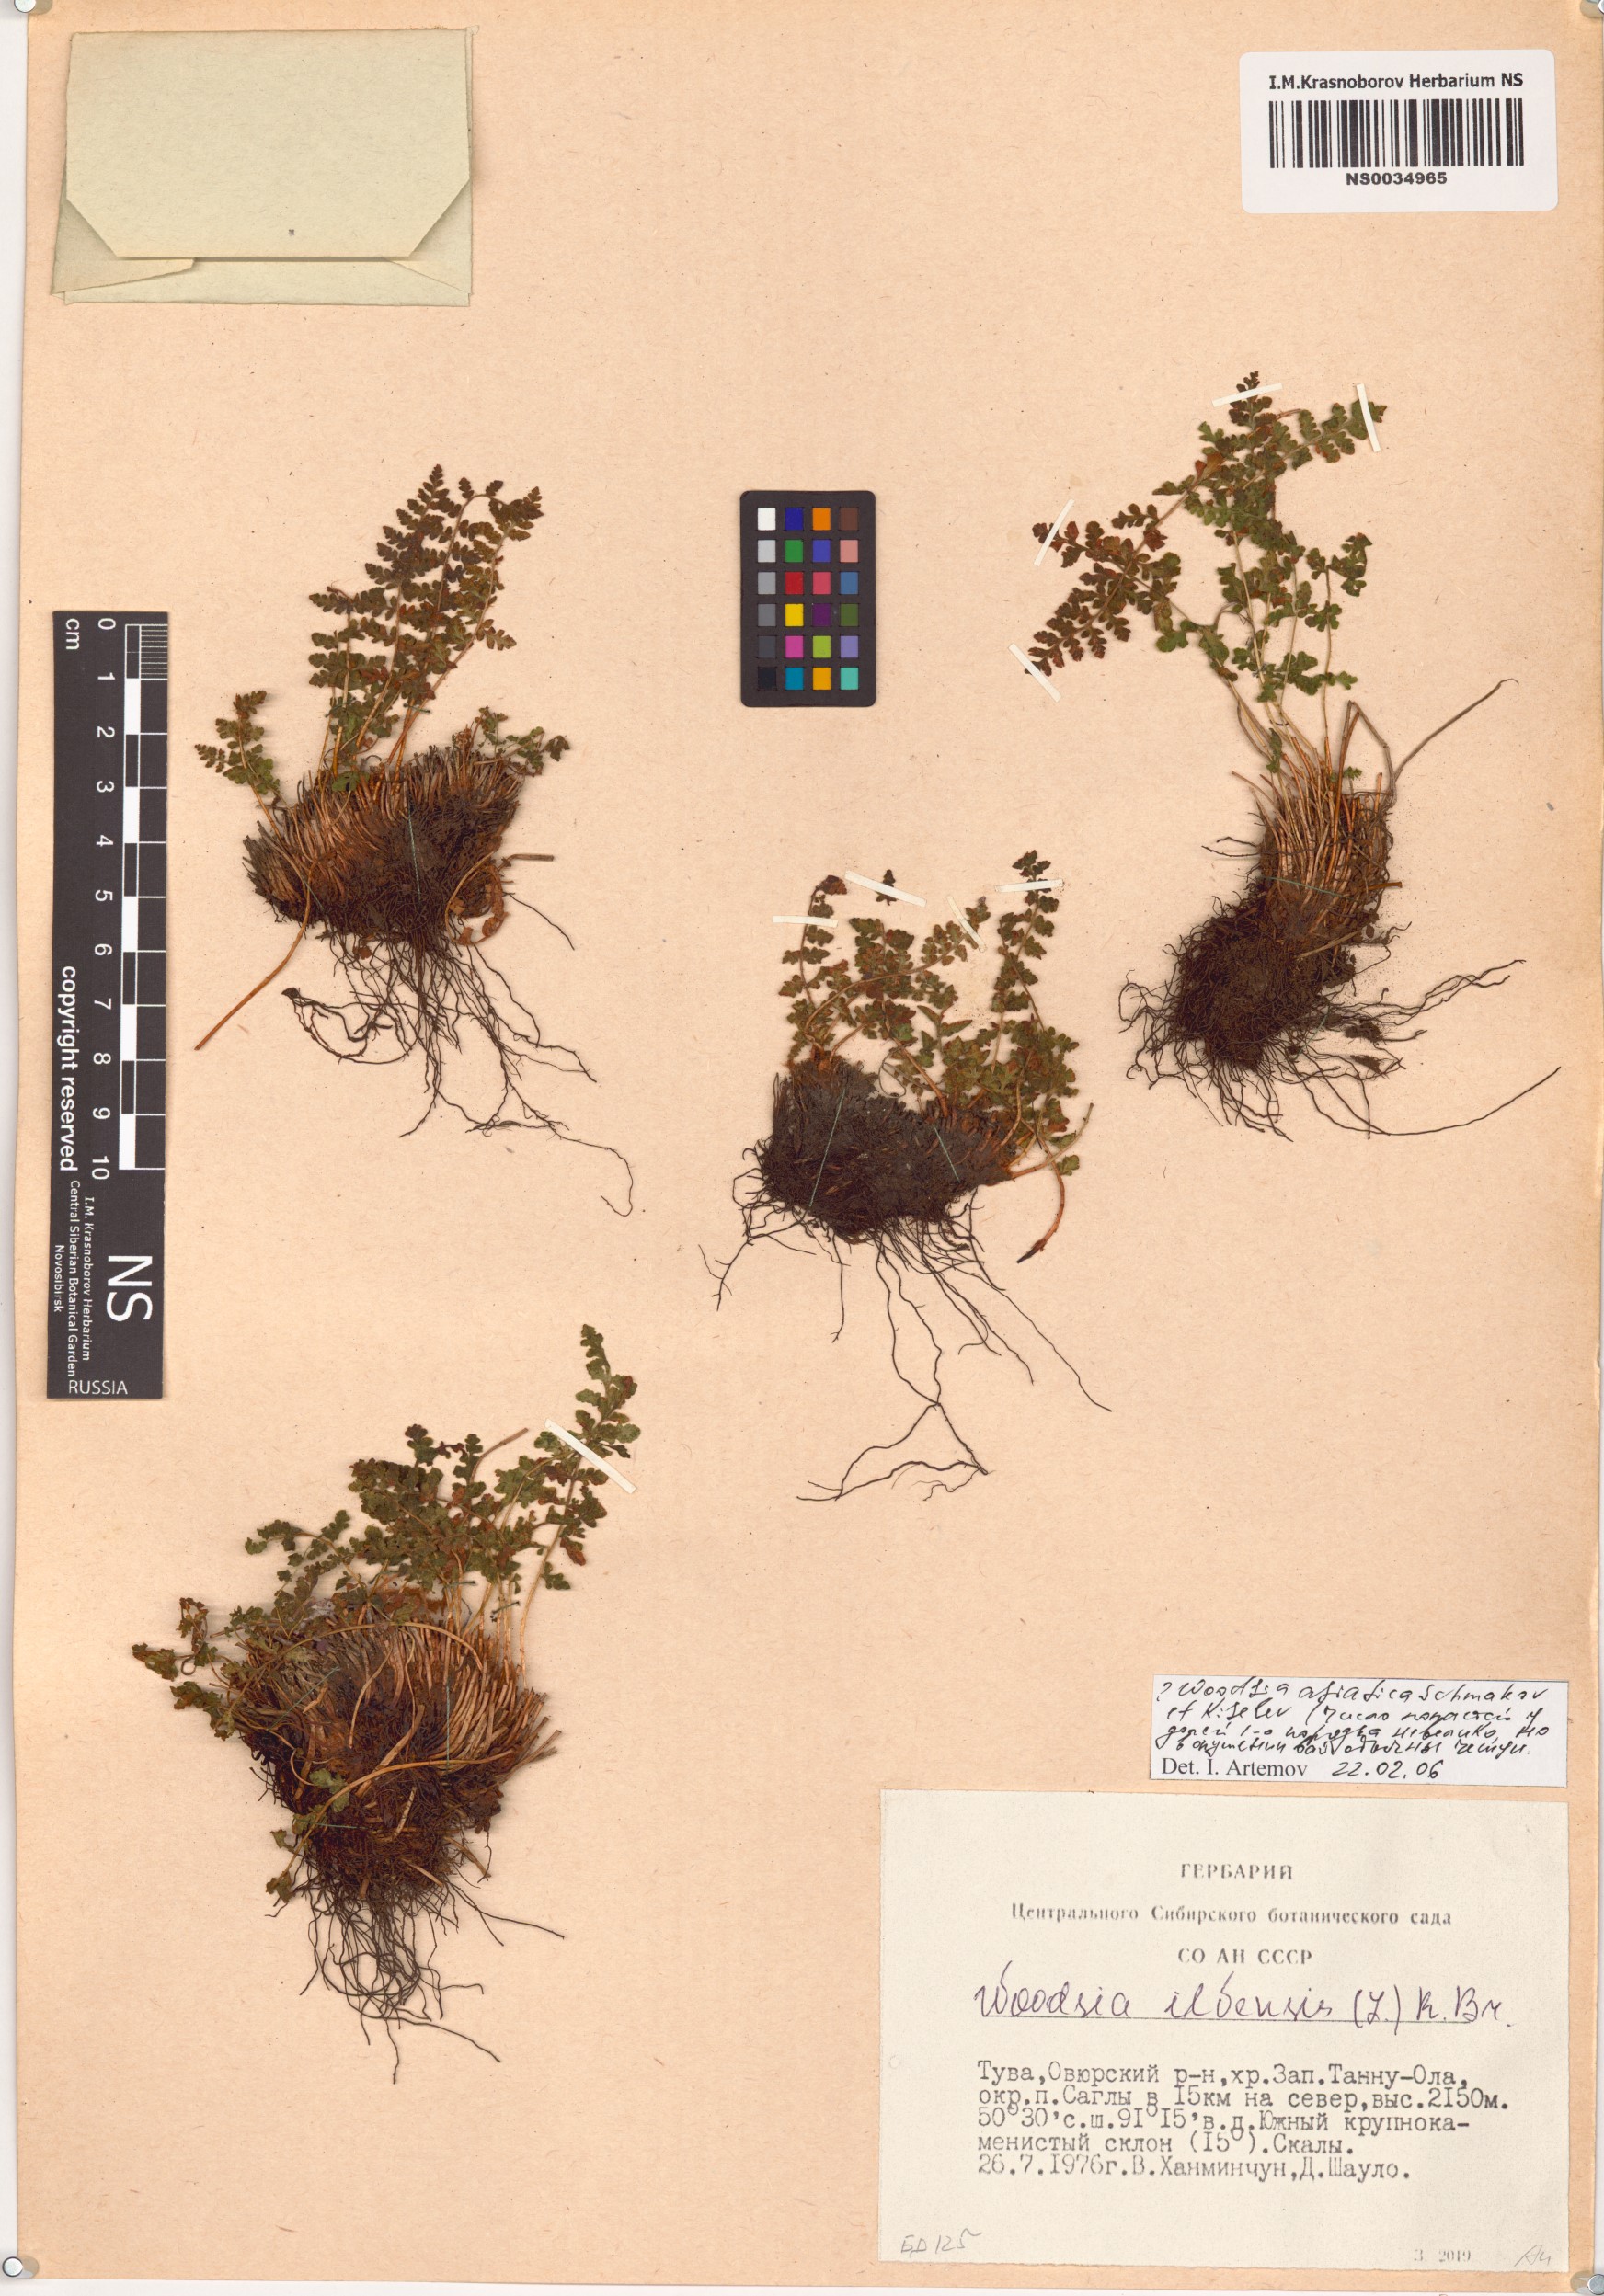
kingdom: Plantae
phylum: Tracheophyta
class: Polypodiopsida
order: Polypodiales
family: Woodsiaceae
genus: Woodsia
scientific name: Woodsia ilvensis
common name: Fragrant woodsia
